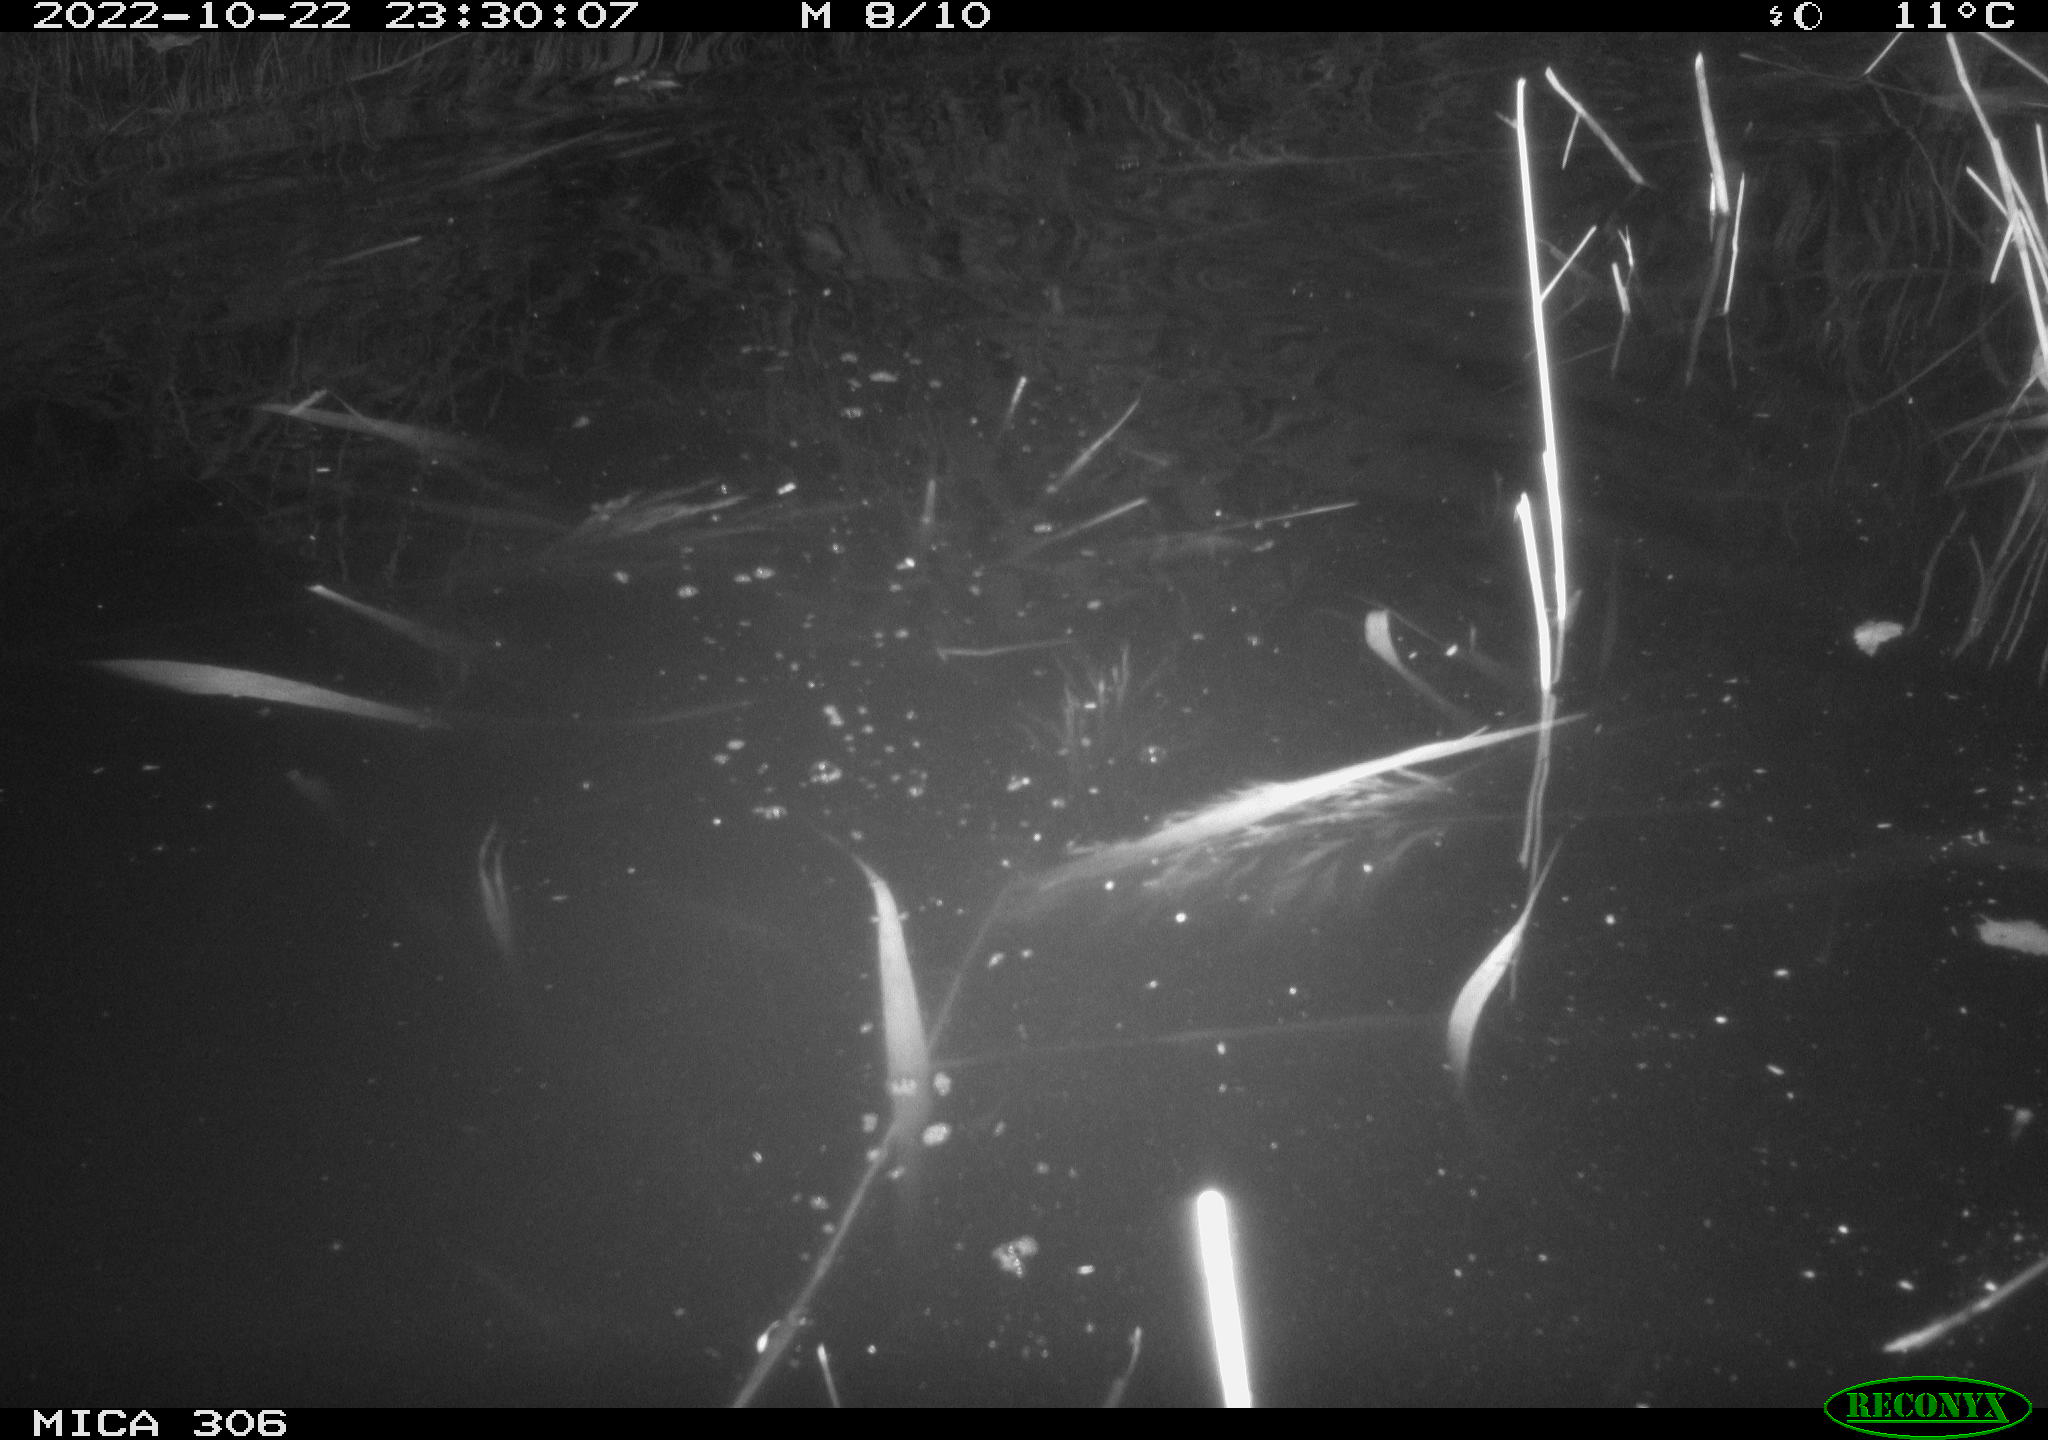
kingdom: Animalia
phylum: Chordata
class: Mammalia
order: Rodentia
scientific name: Rodentia
